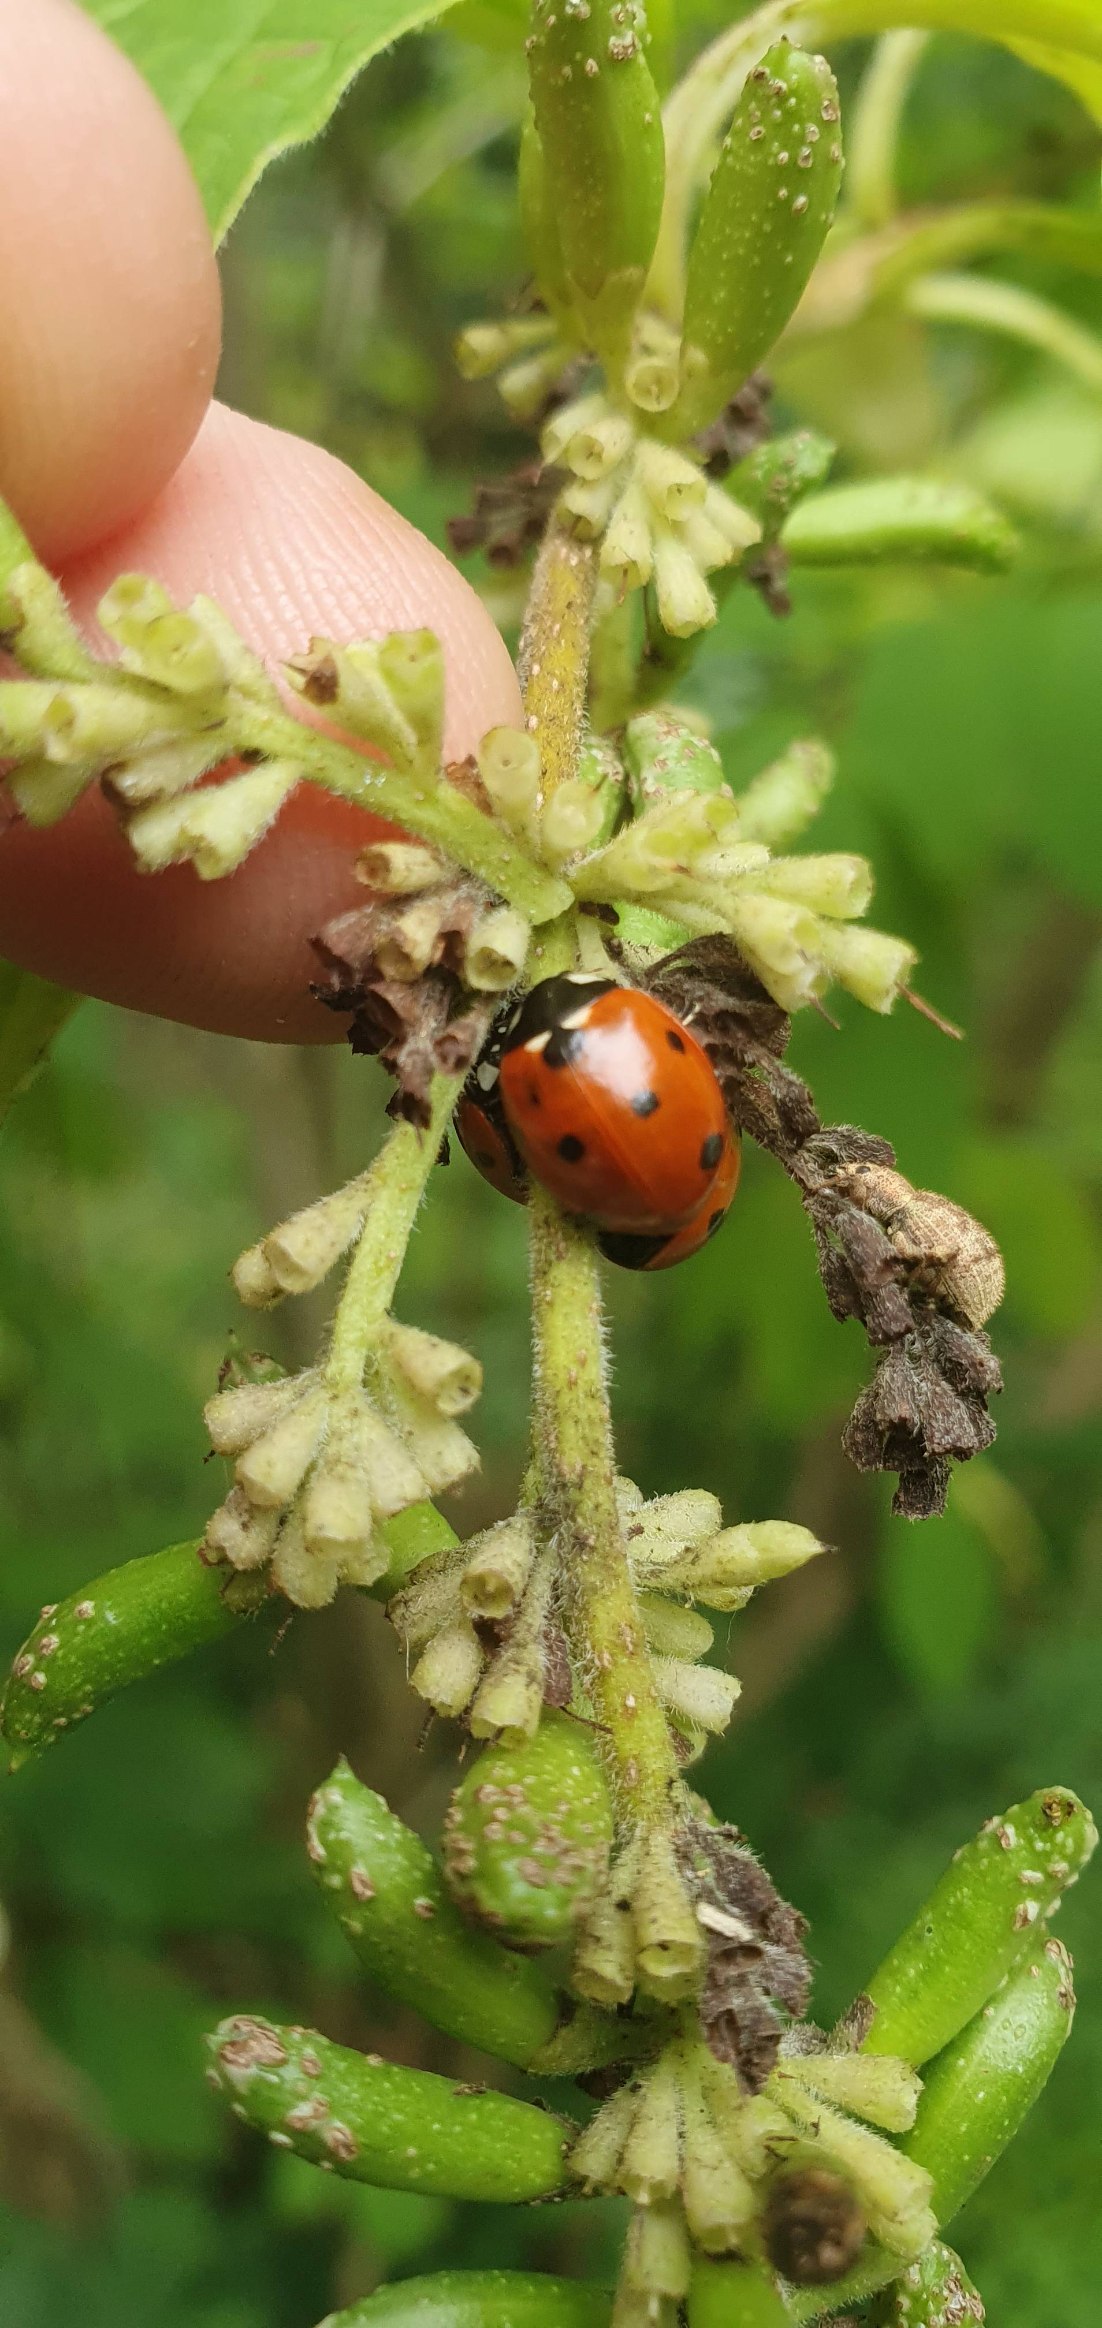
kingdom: Animalia
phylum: Arthropoda
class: Insecta
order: Coleoptera
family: Coccinellidae
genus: Coccinella
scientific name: Coccinella septempunctata
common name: Syvplettet mariehøne
